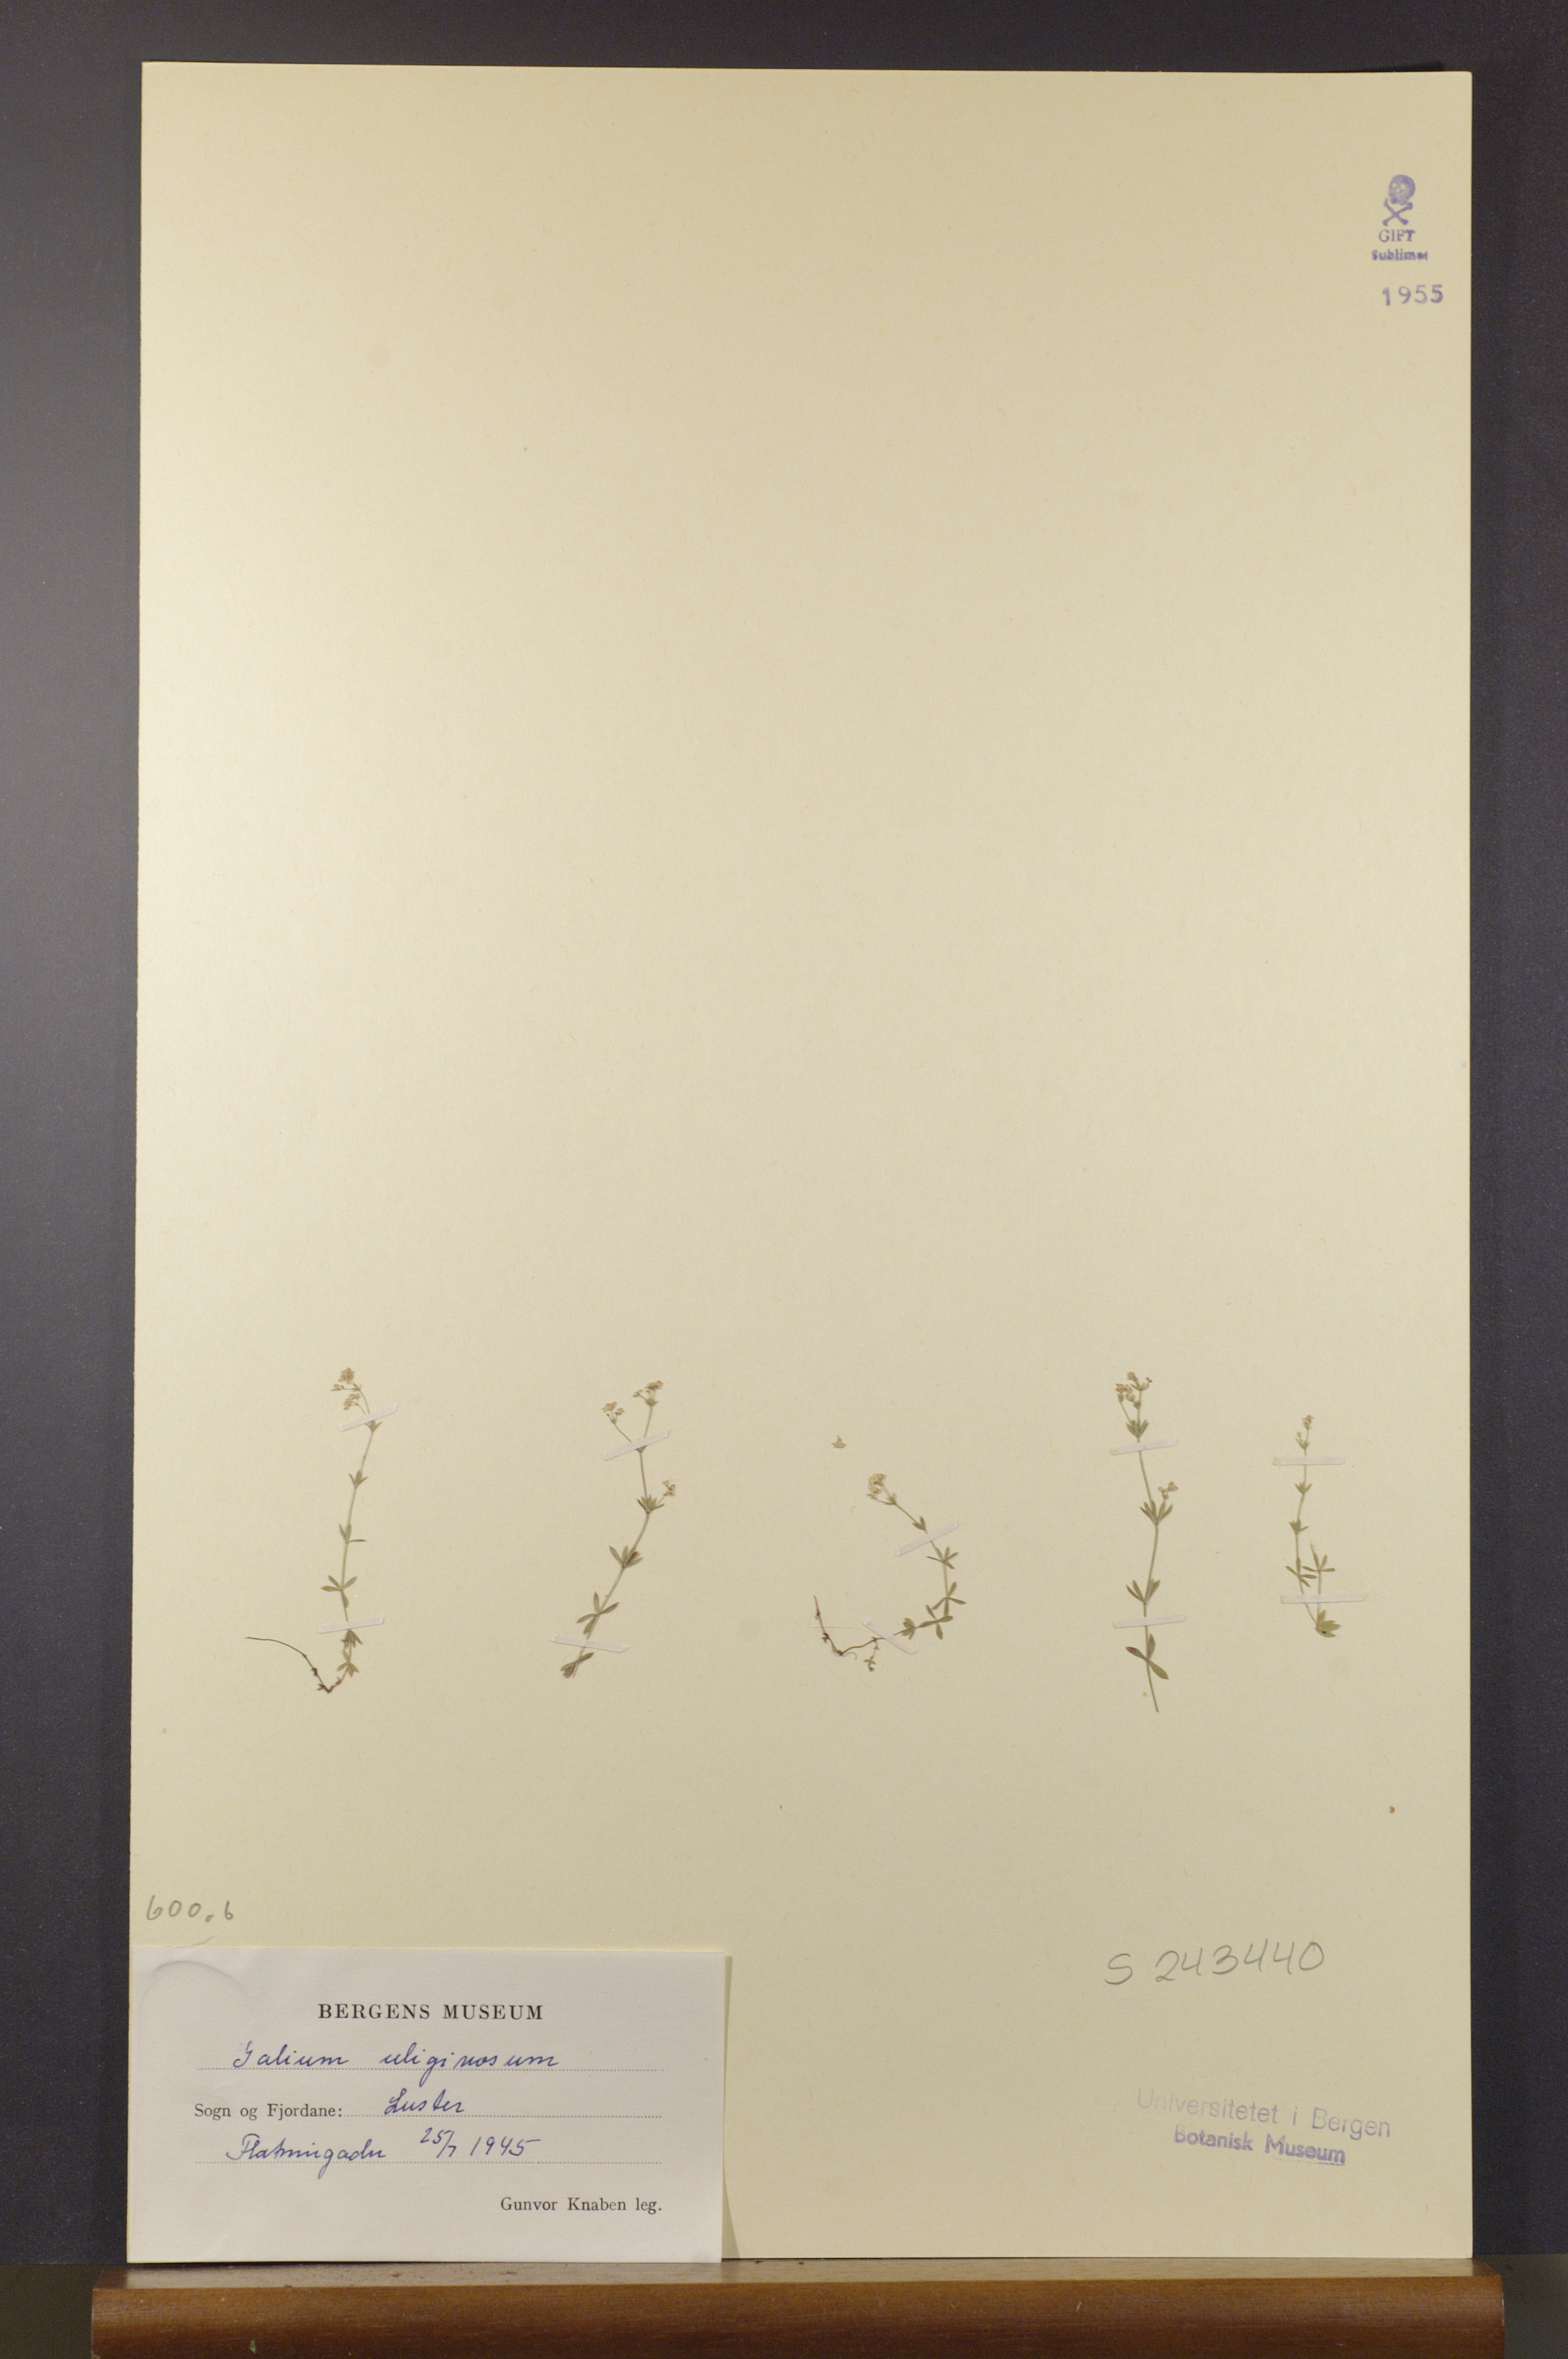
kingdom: Plantae
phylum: Tracheophyta
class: Magnoliopsida
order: Gentianales
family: Rubiaceae
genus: Galium
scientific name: Galium uliginosum
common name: Fen bedstraw
